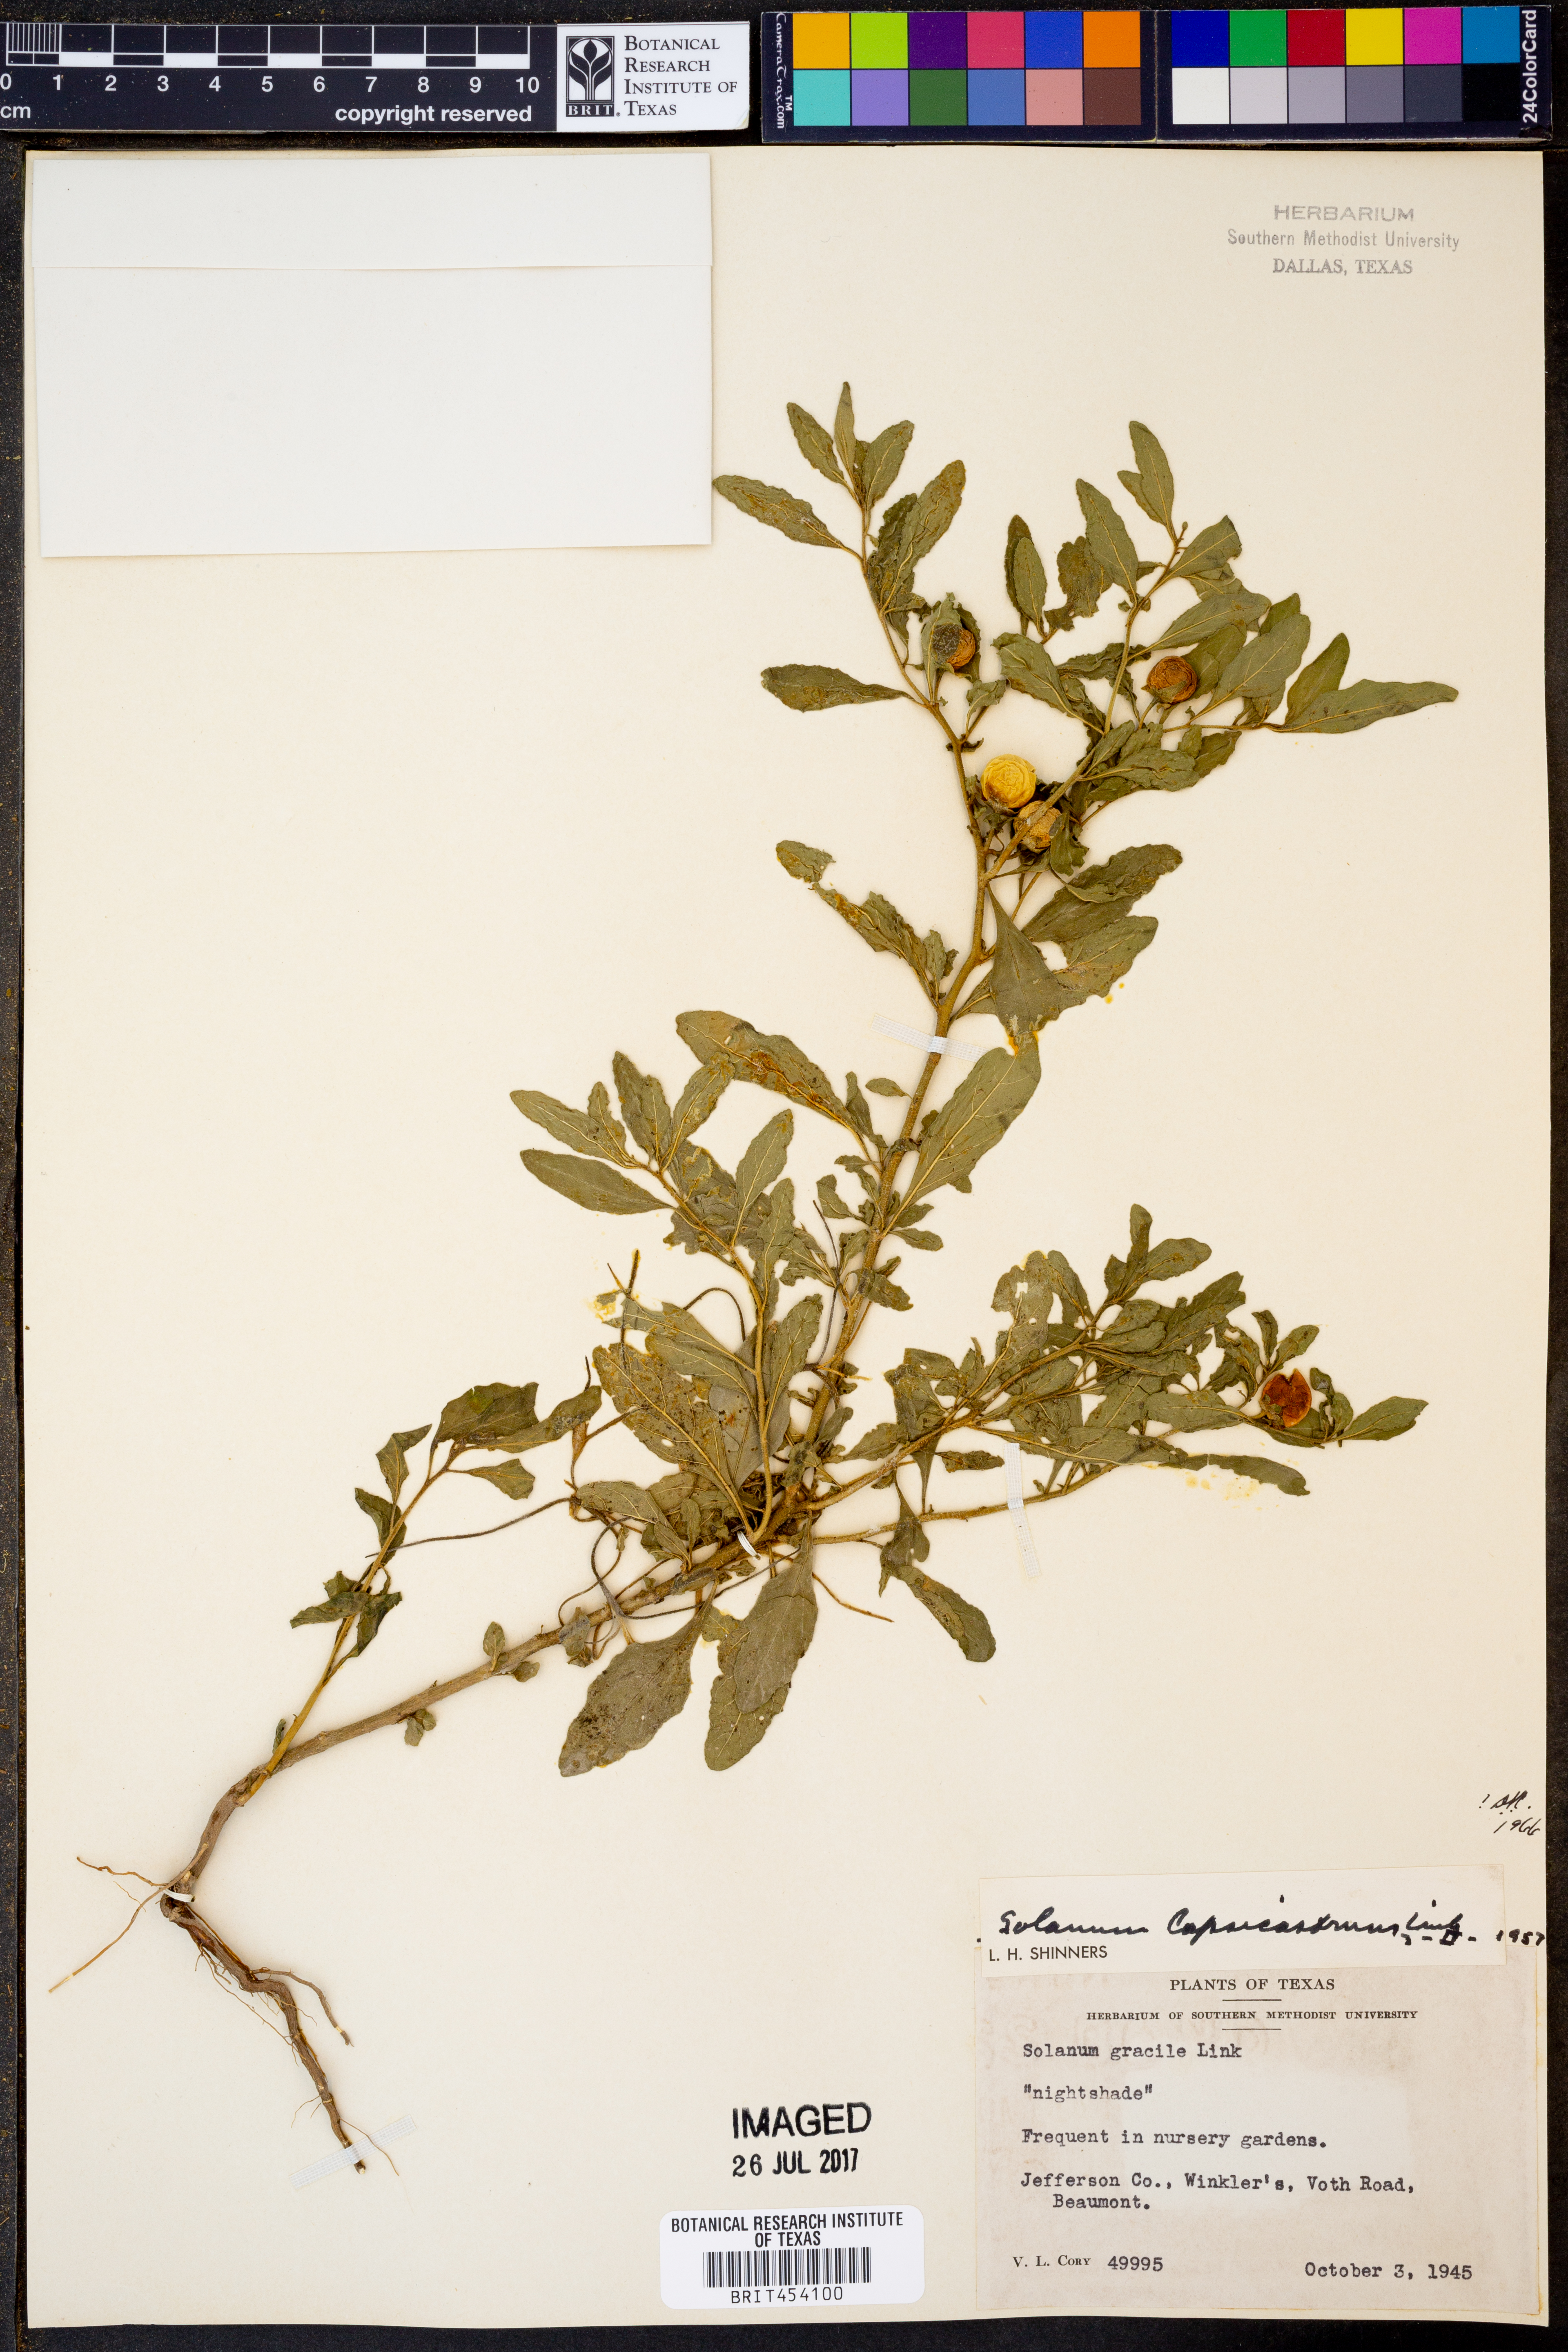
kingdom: Plantae
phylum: Tracheophyta
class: Magnoliopsida
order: Solanales
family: Solanaceae
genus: Solanum
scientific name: Solanum pseudocapsicum
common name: Jerusalem cherry
